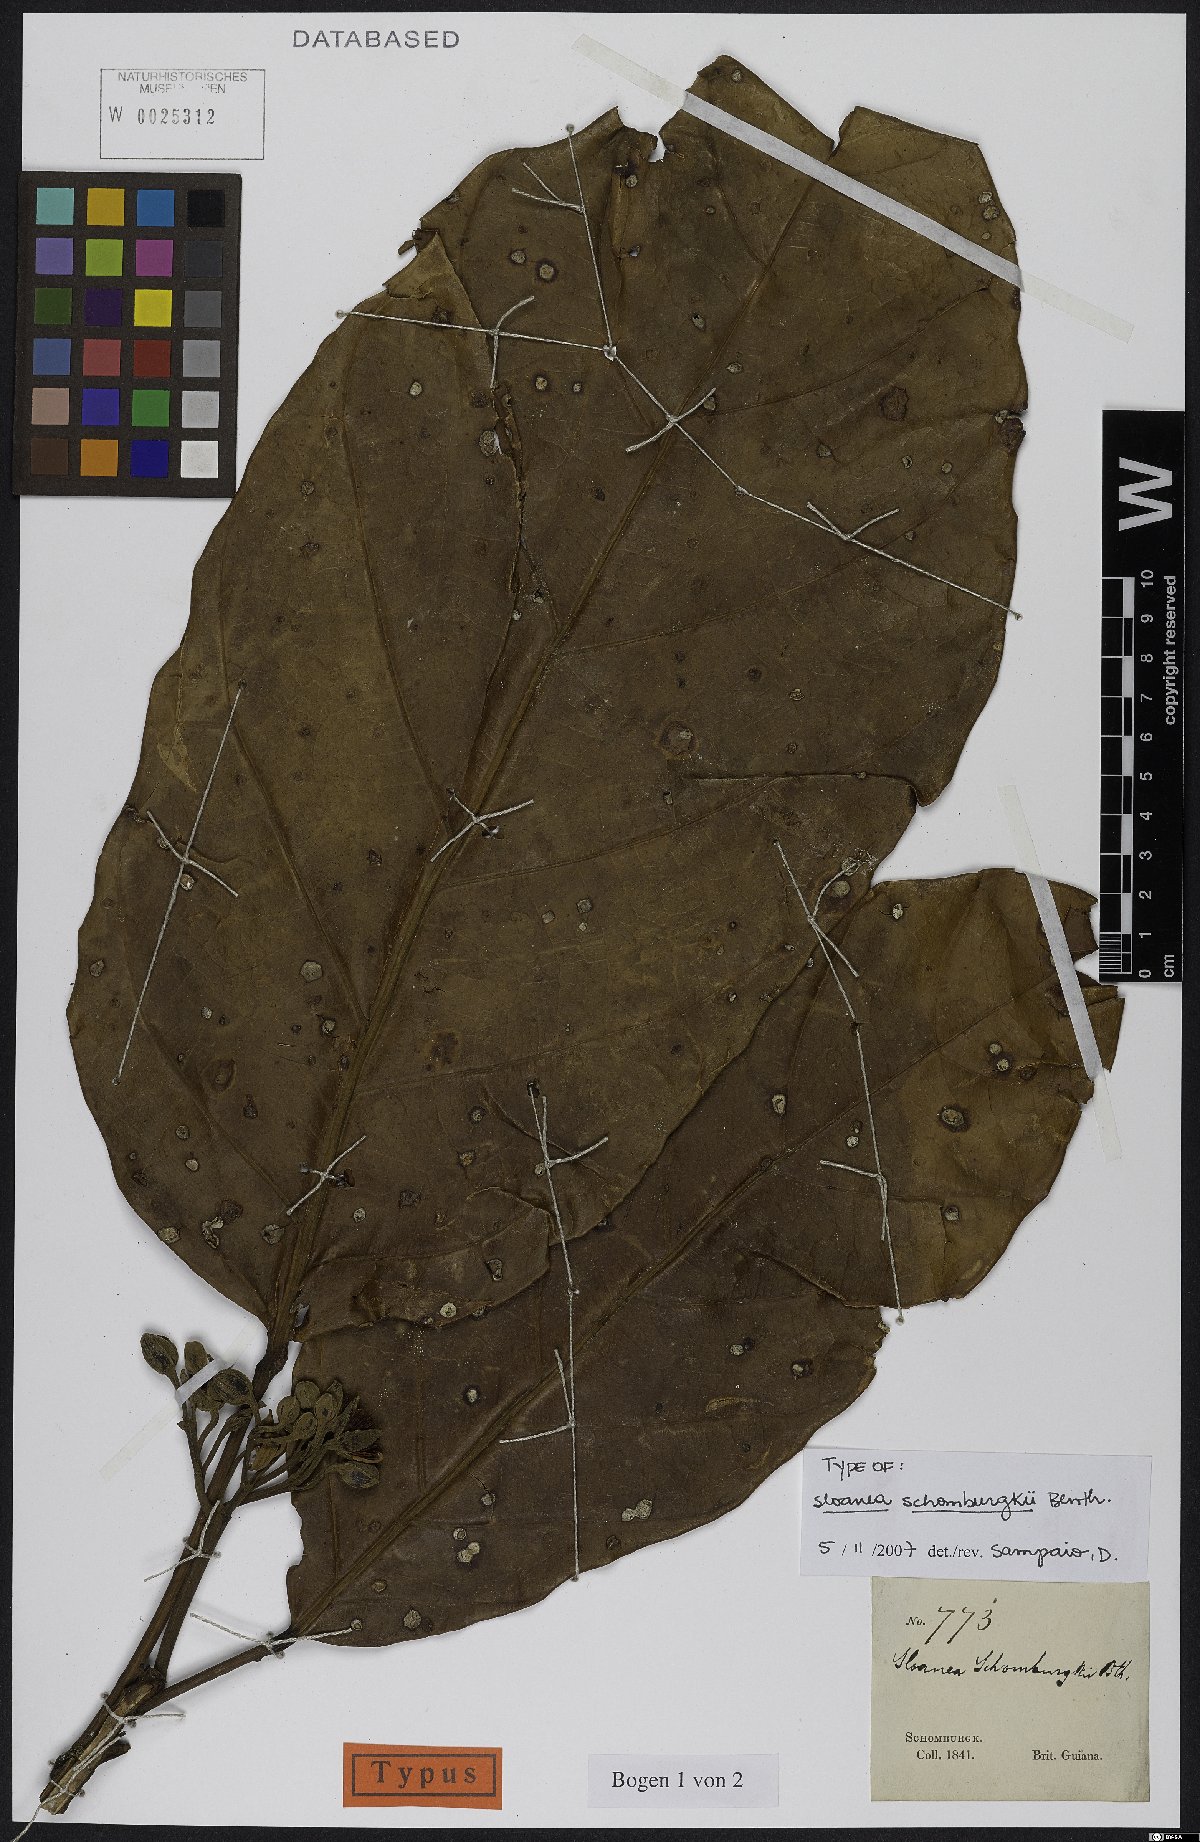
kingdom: Plantae
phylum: Tracheophyta
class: Magnoliopsida
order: Oxalidales
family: Elaeocarpaceae
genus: Sloanea
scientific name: Sloanea schomburgkii
